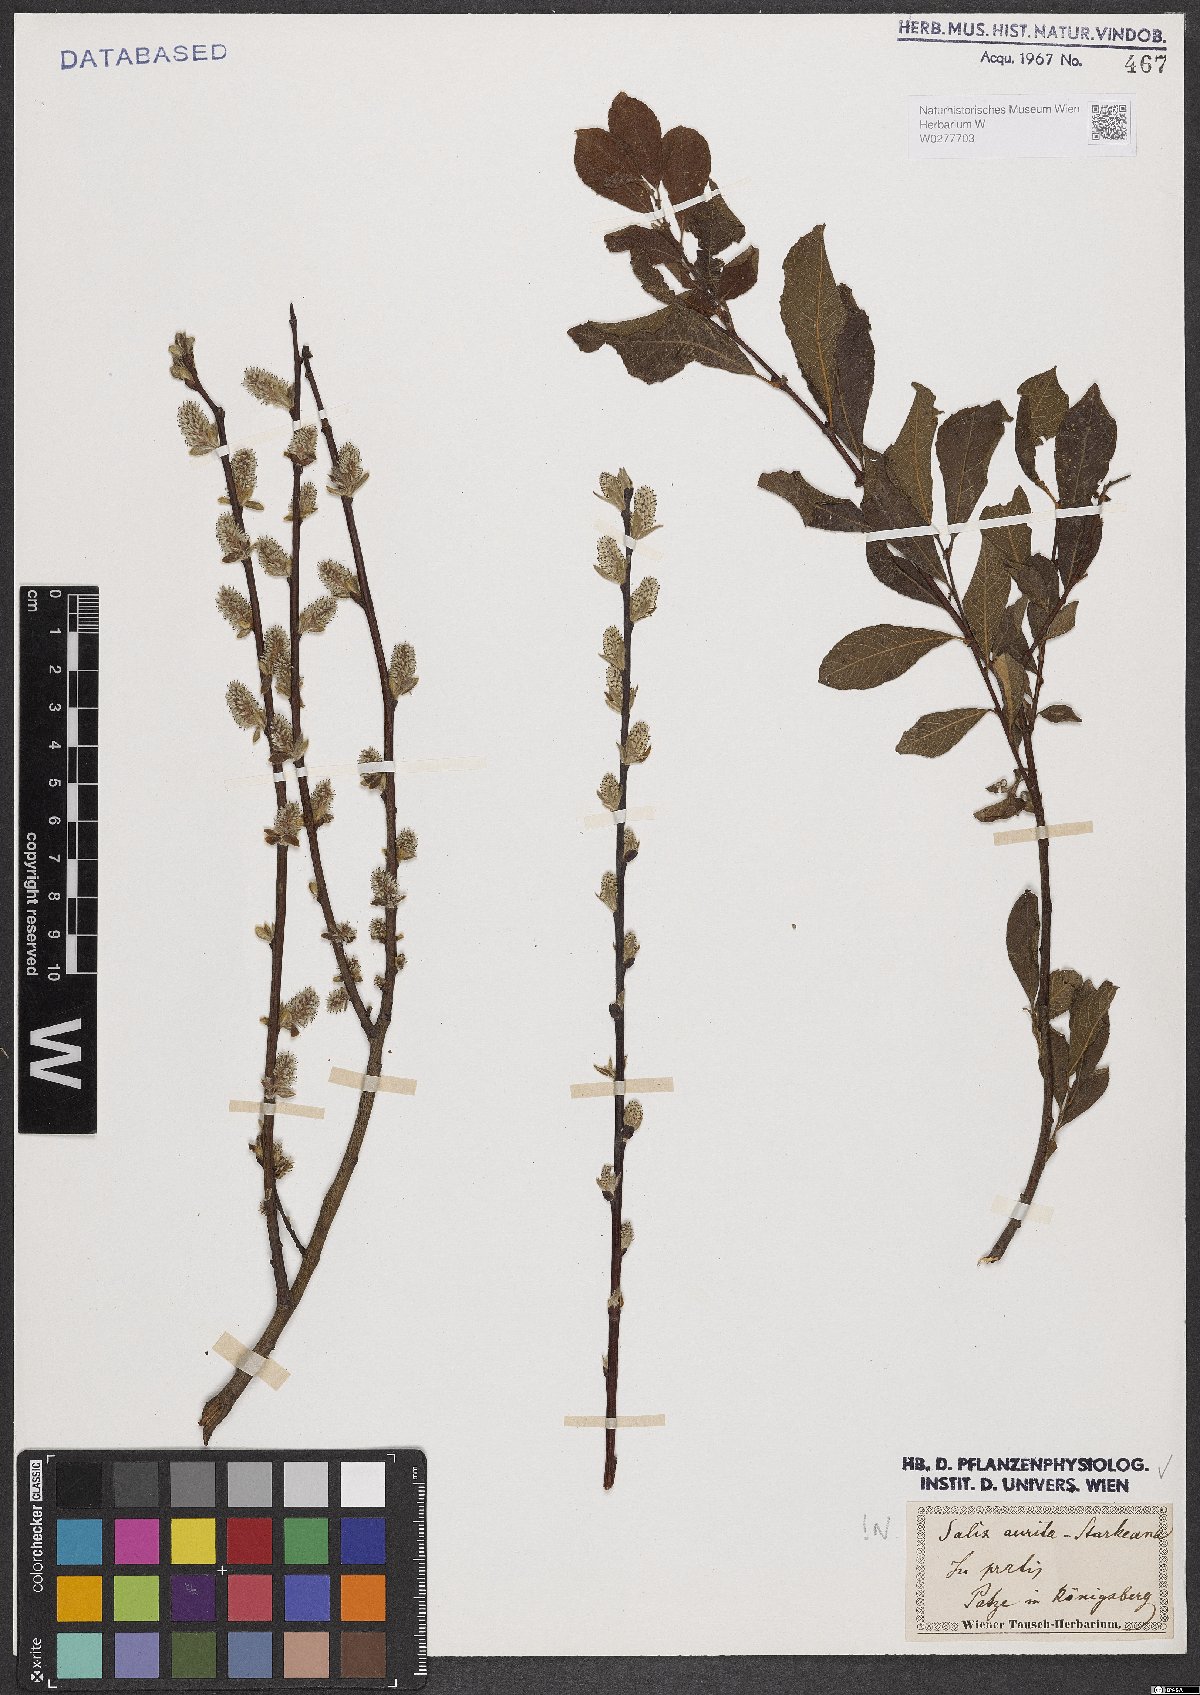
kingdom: Plantae
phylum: Tracheophyta
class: Magnoliopsida
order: Malpighiales
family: Salicaceae
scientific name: Salicaceae
